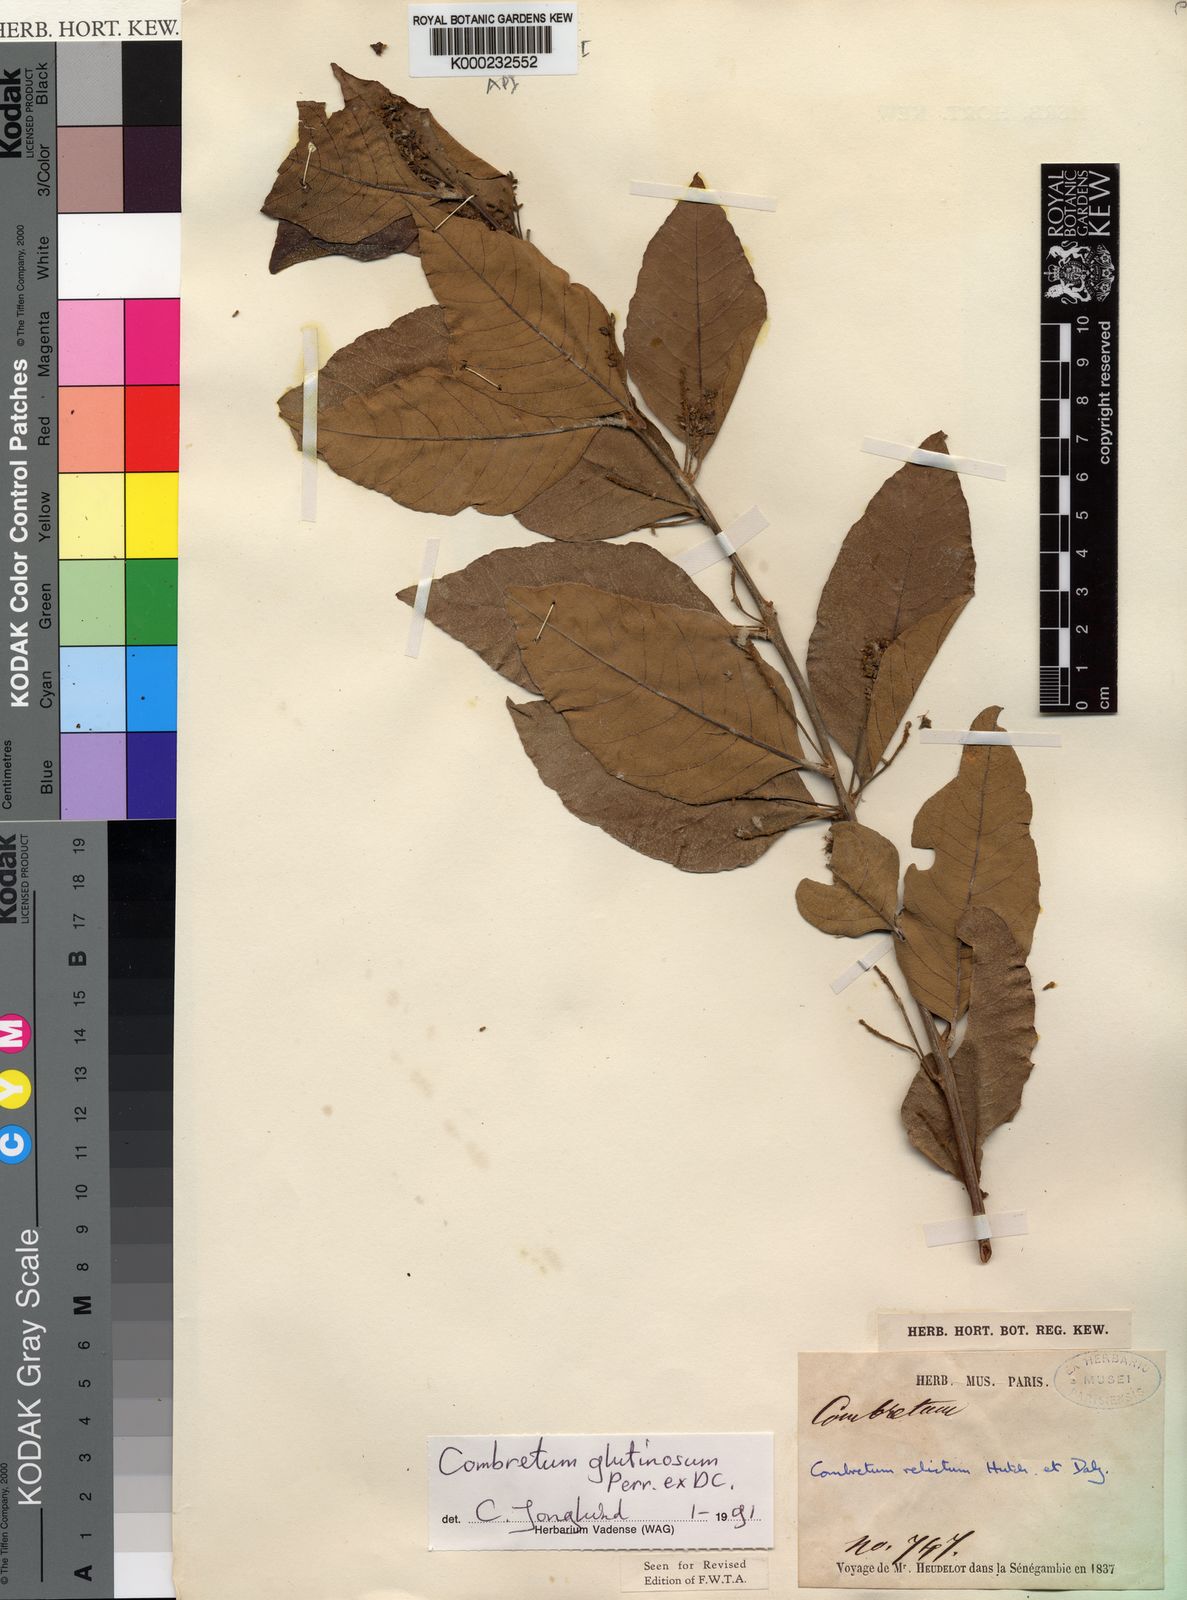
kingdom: Plantae
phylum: Tracheophyta
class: Magnoliopsida
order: Myrtales
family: Combretaceae
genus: Combretum
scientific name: Combretum glutinosum
